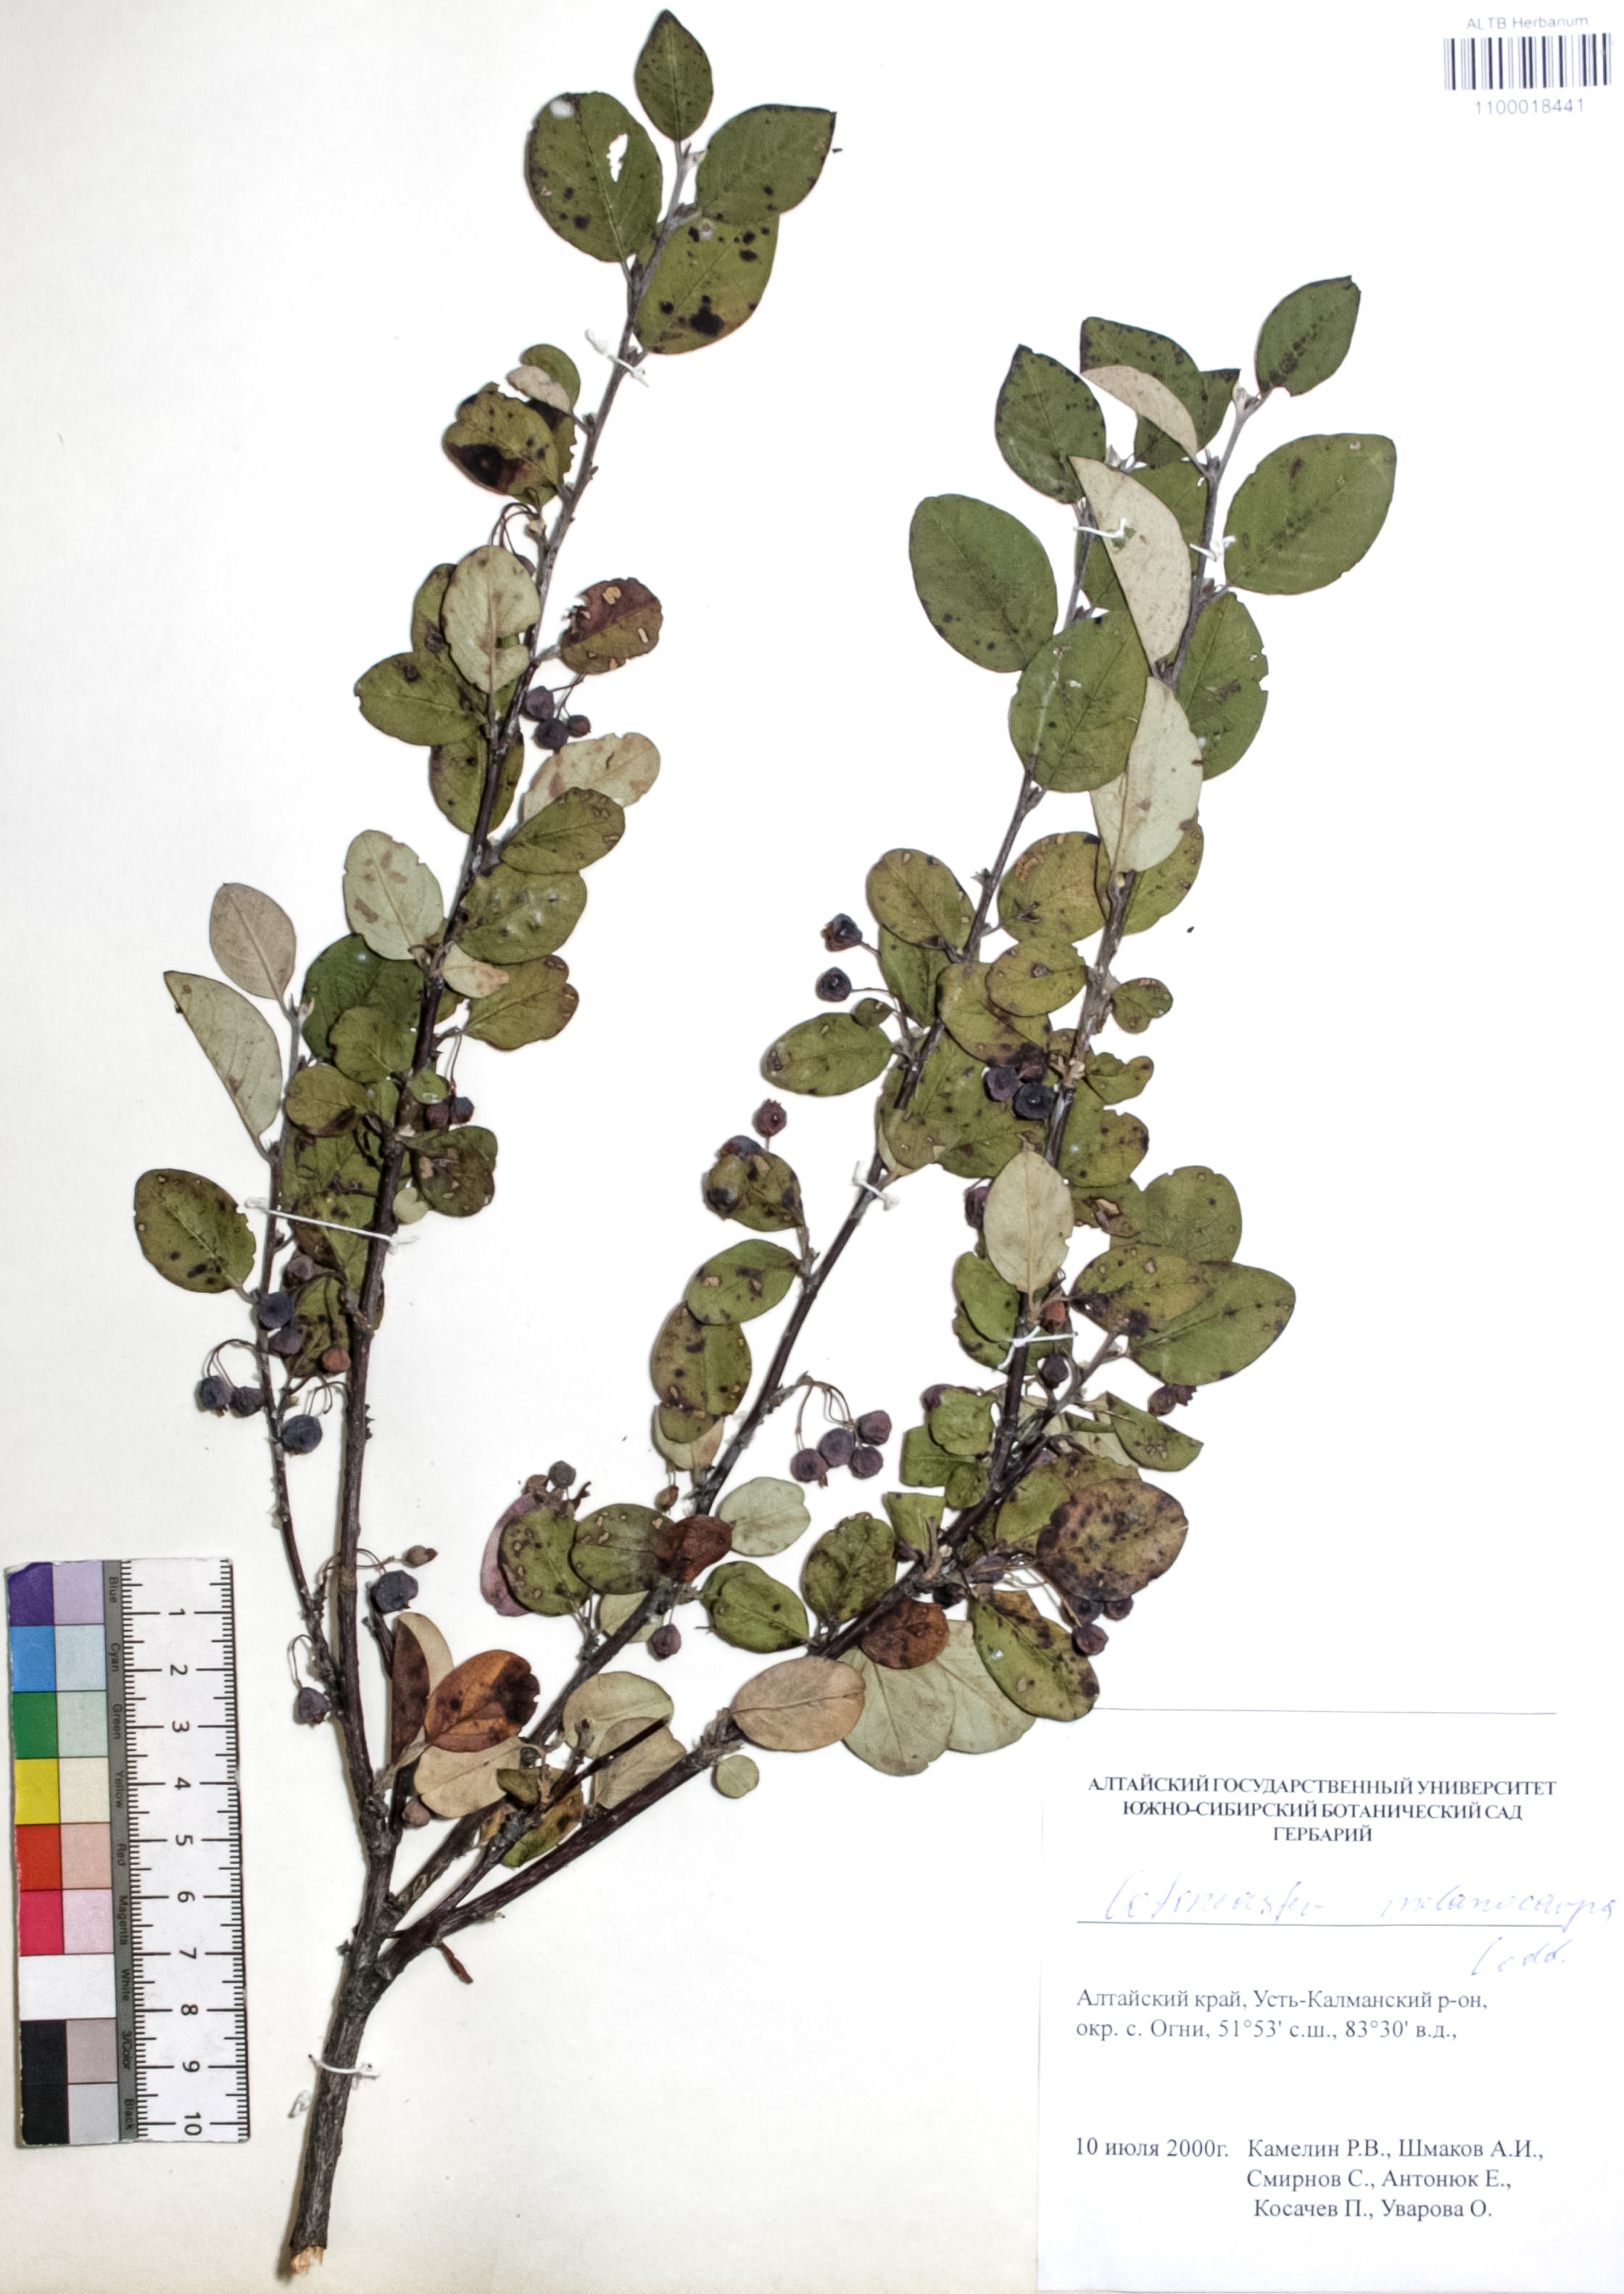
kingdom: Plantae
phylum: Tracheophyta
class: Magnoliopsida
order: Rosales
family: Rosaceae
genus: Cotoneaster
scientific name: Cotoneaster niger
